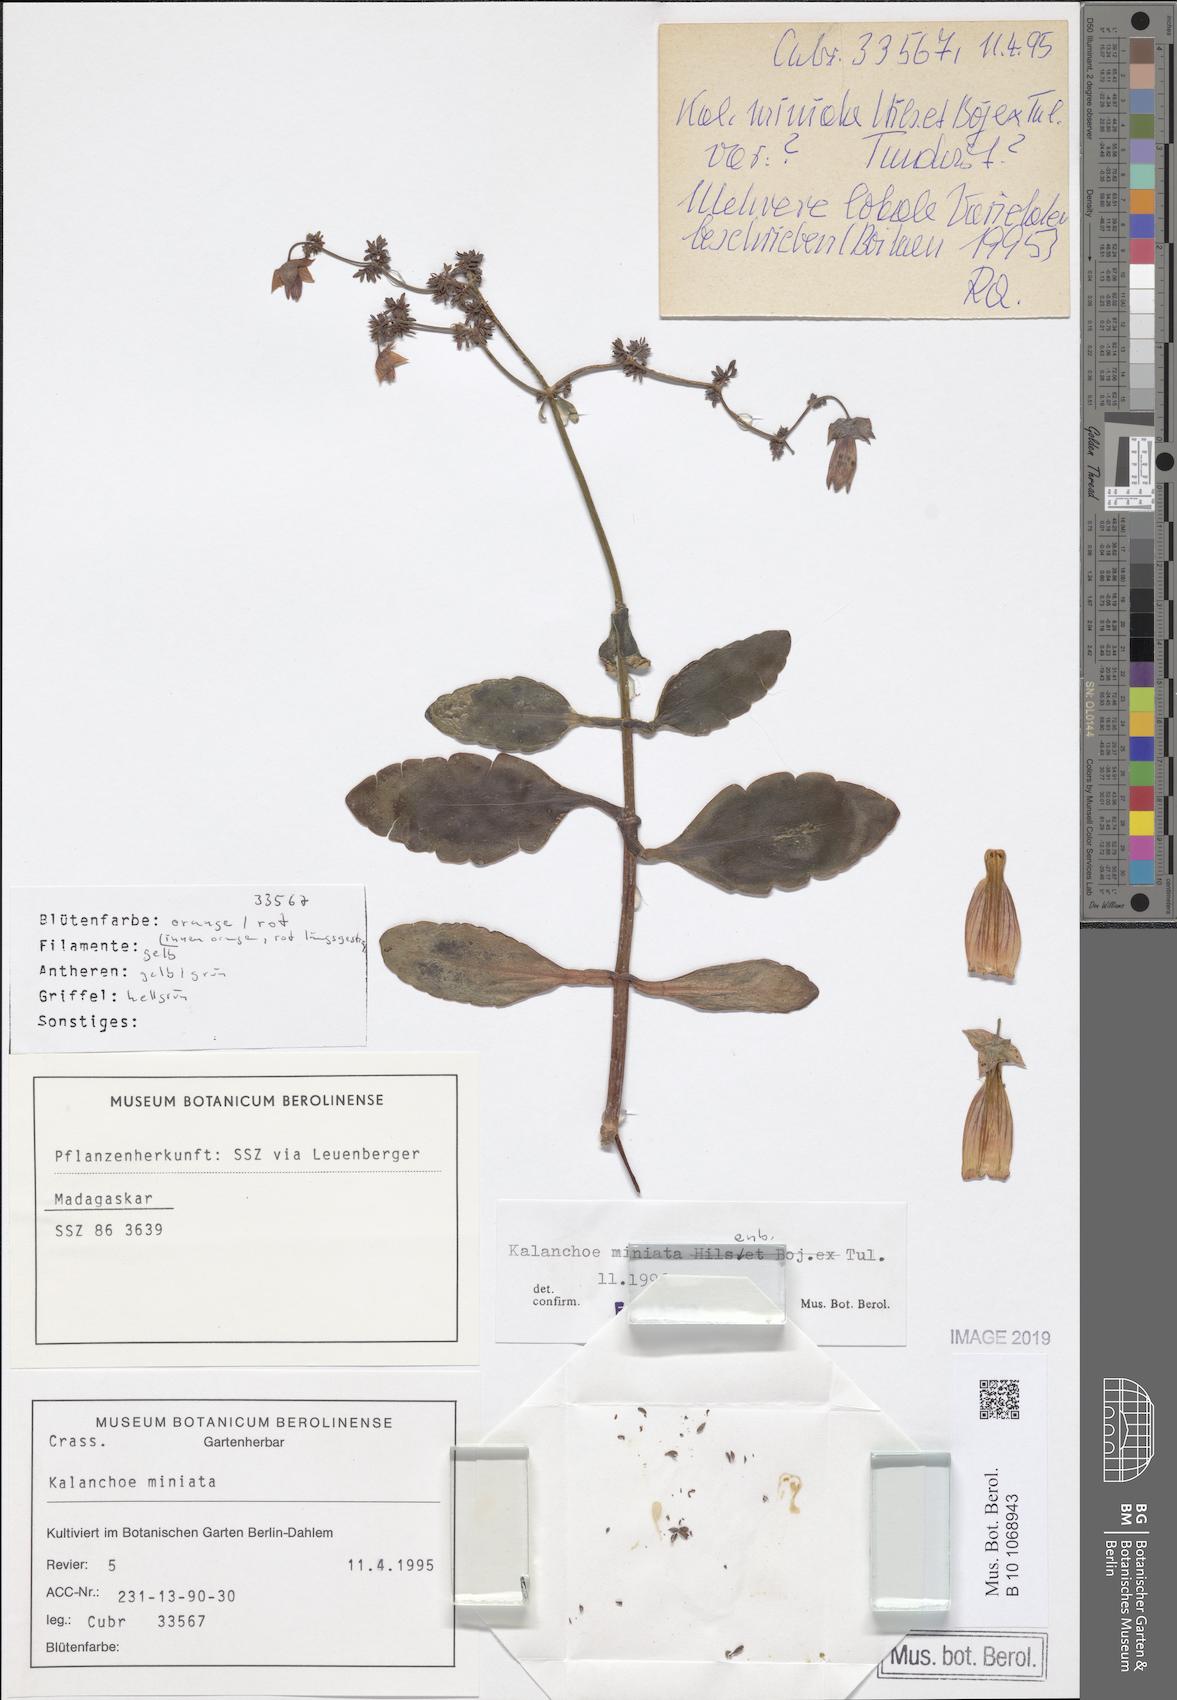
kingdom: Plantae
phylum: Tracheophyta
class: Magnoliopsida
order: Saxifragales
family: Crassulaceae
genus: Kalanchoe
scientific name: Kalanchoe miniata
